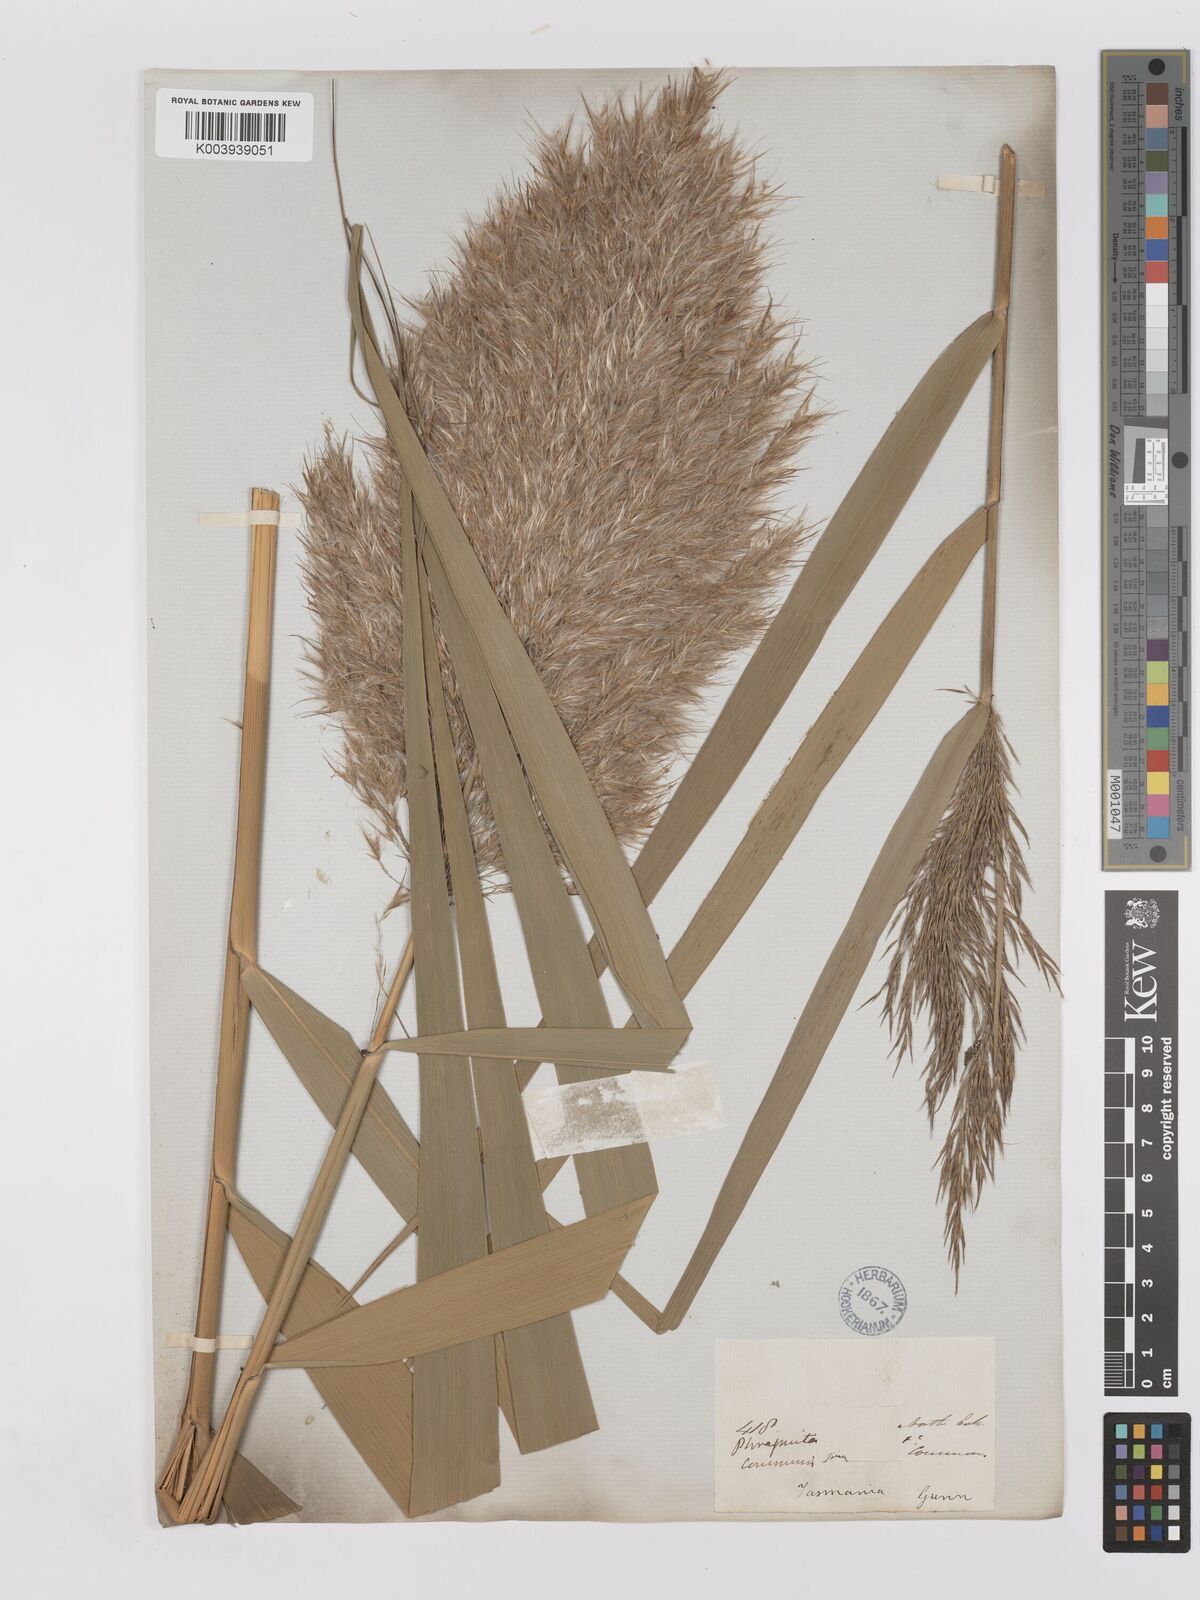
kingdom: Plantae
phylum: Tracheophyta
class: Liliopsida
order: Poales
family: Poaceae
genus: Phragmites
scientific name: Phragmites australis
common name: Common reed
